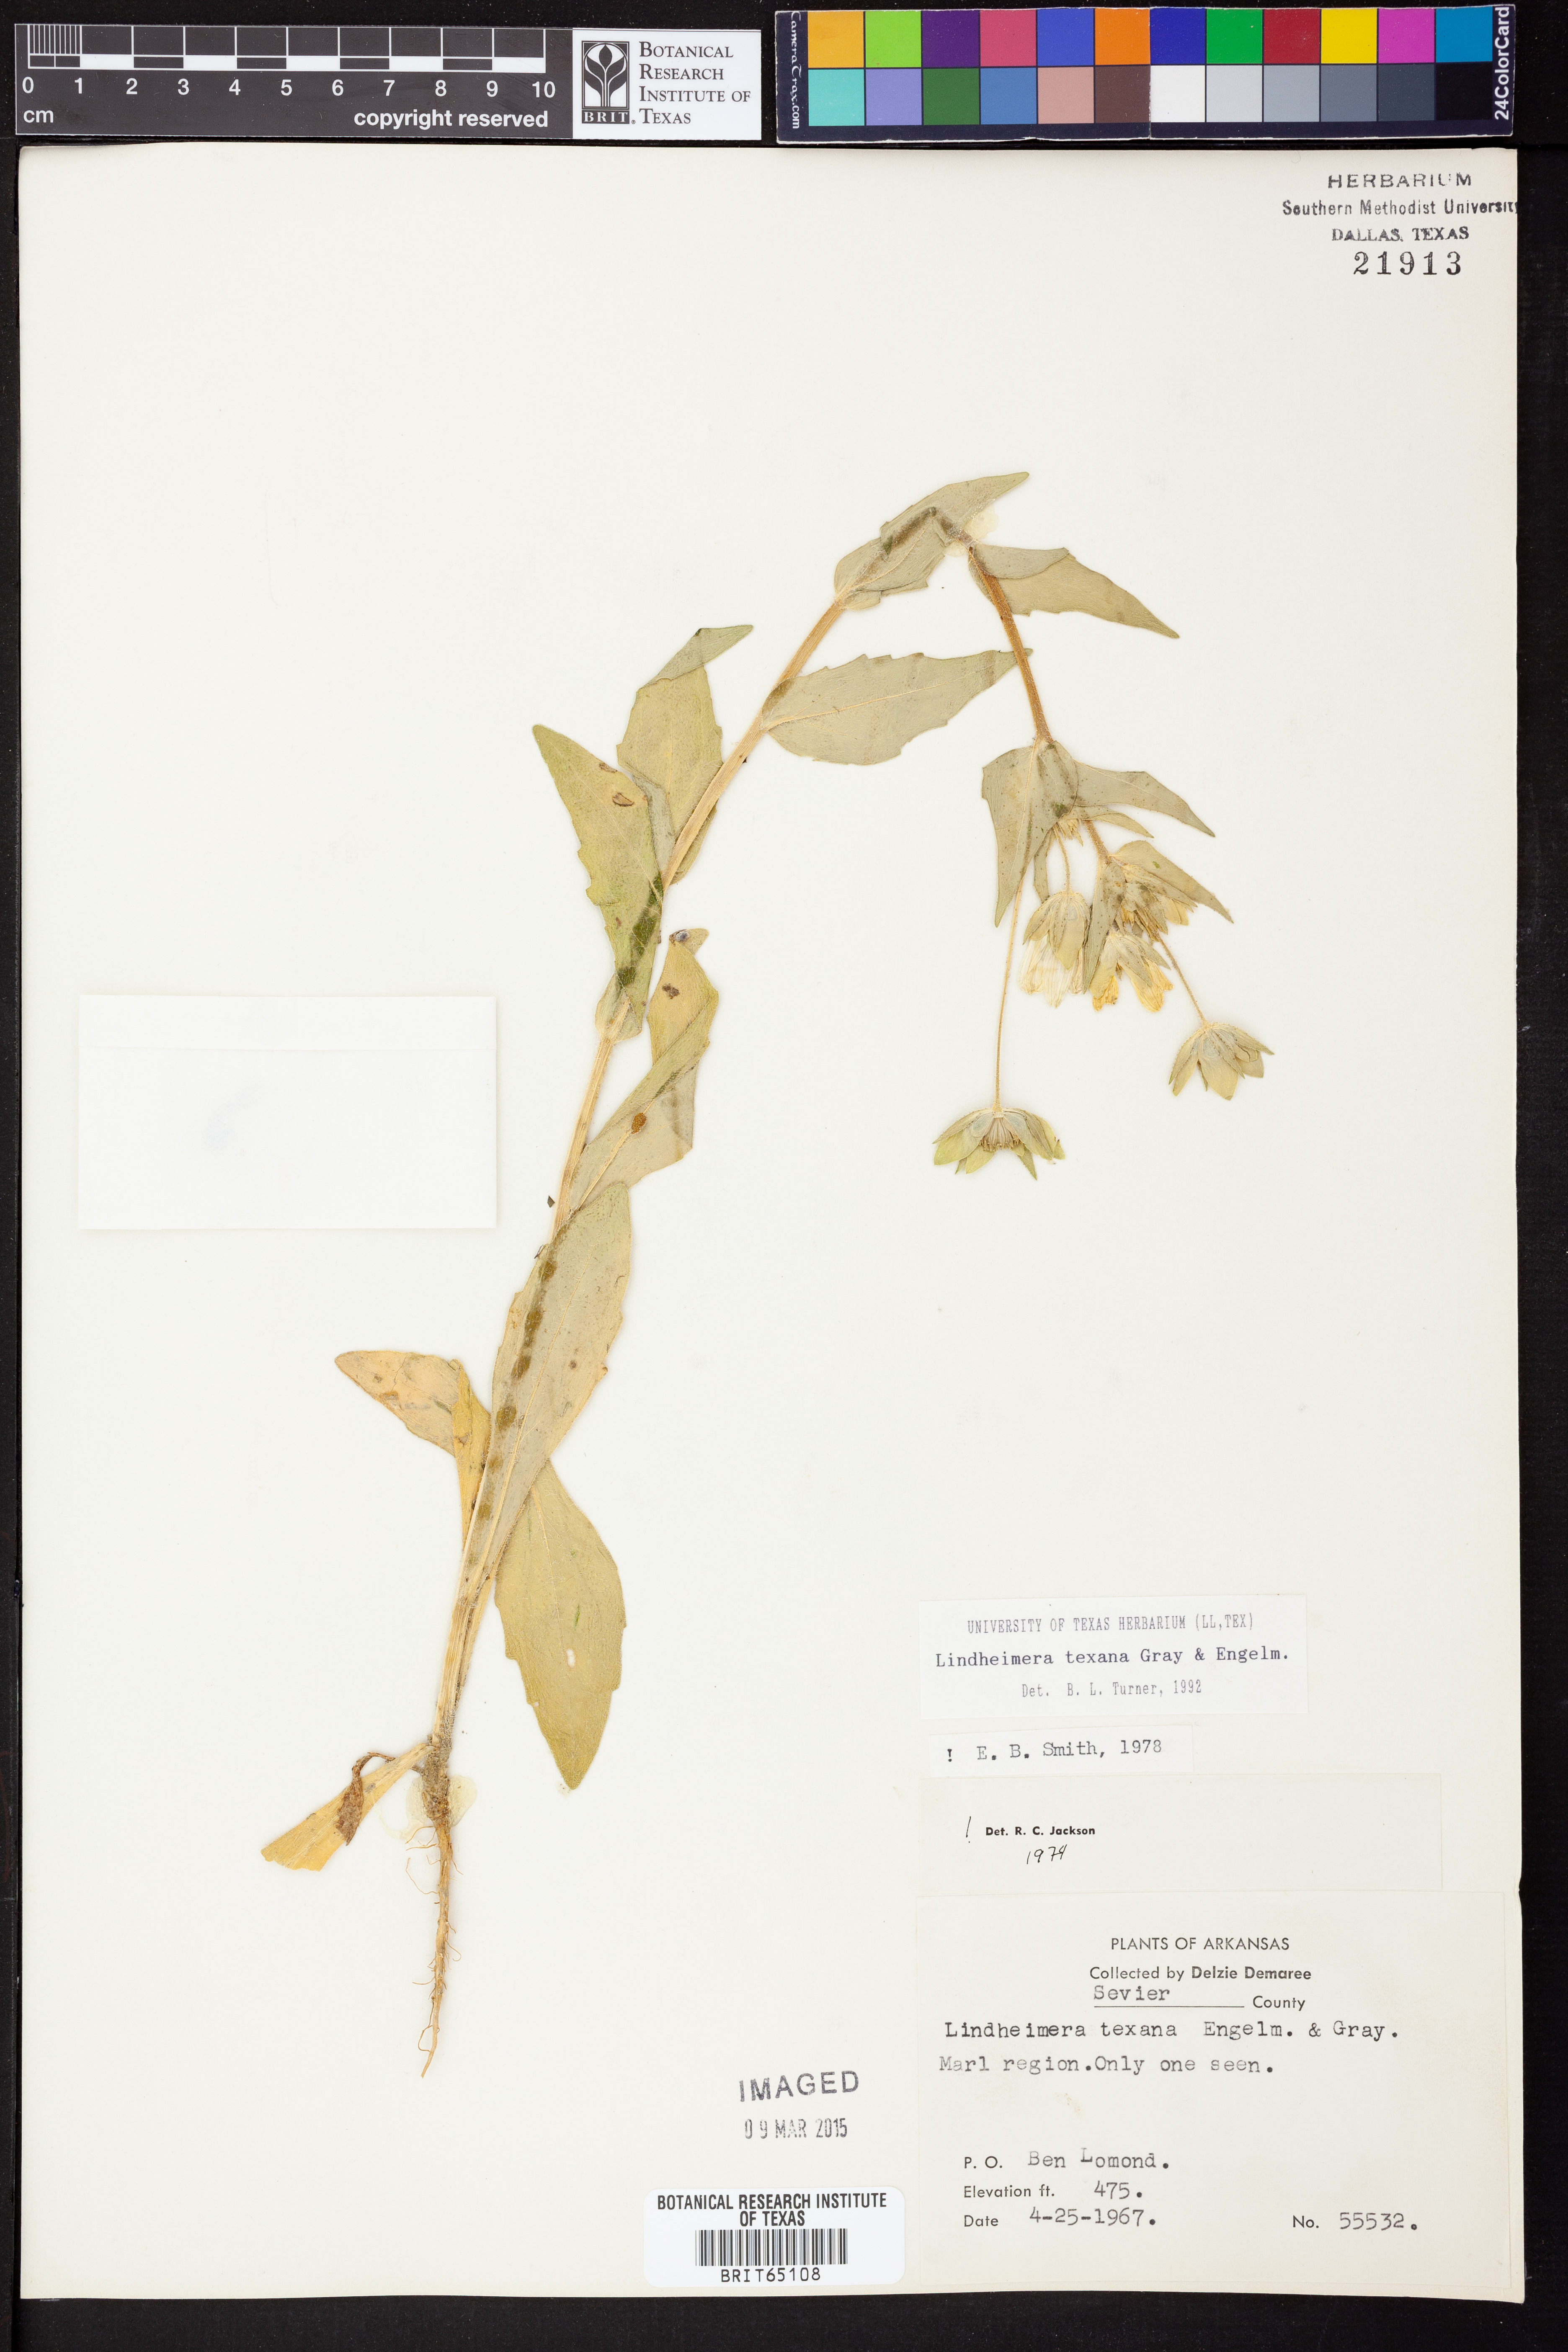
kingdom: Plantae
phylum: Tracheophyta
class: Magnoliopsida
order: Asterales
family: Asteraceae
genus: Lindheimera
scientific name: Lindheimera
